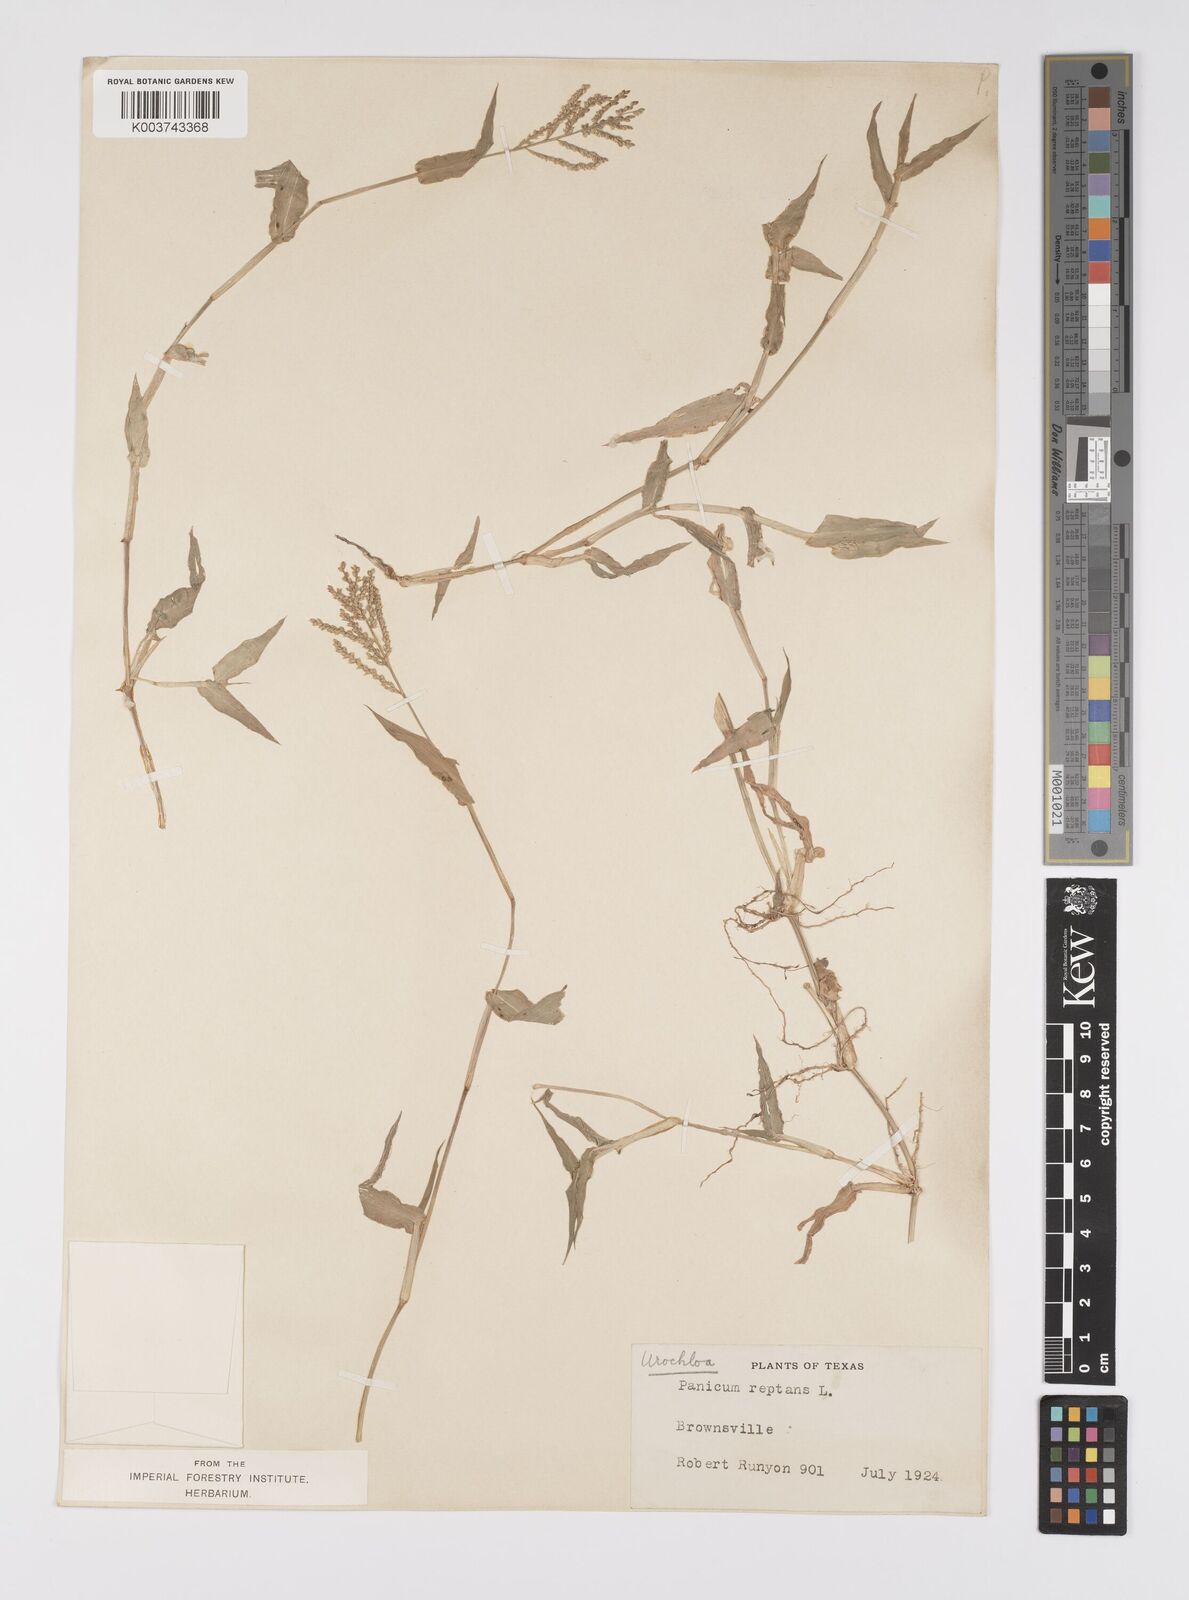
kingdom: Plantae
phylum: Tracheophyta
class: Liliopsida
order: Poales
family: Poaceae
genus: Urochloa
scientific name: Urochloa reptans
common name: Sprawling signalgrass
